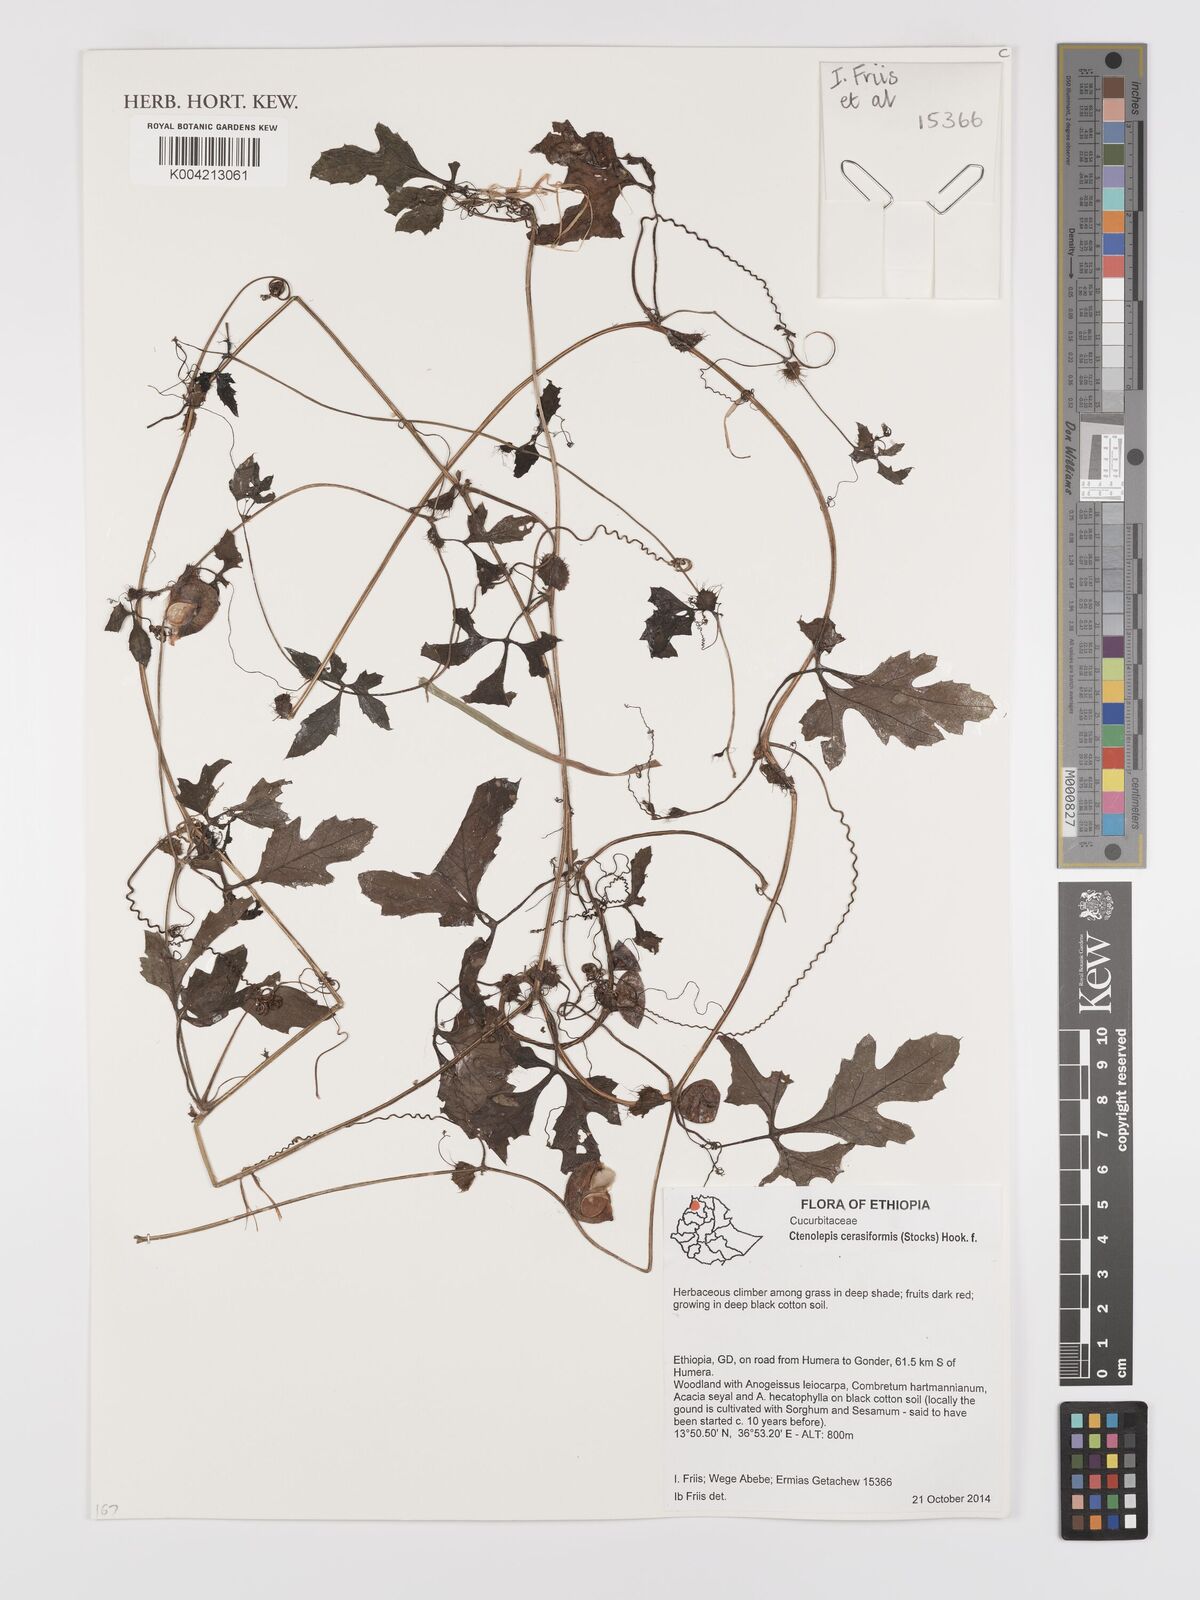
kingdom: Plantae
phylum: Tracheophyta
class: Magnoliopsida
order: Cucurbitales
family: Cucurbitaceae
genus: Blastania
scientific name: Blastania cerasiformis
